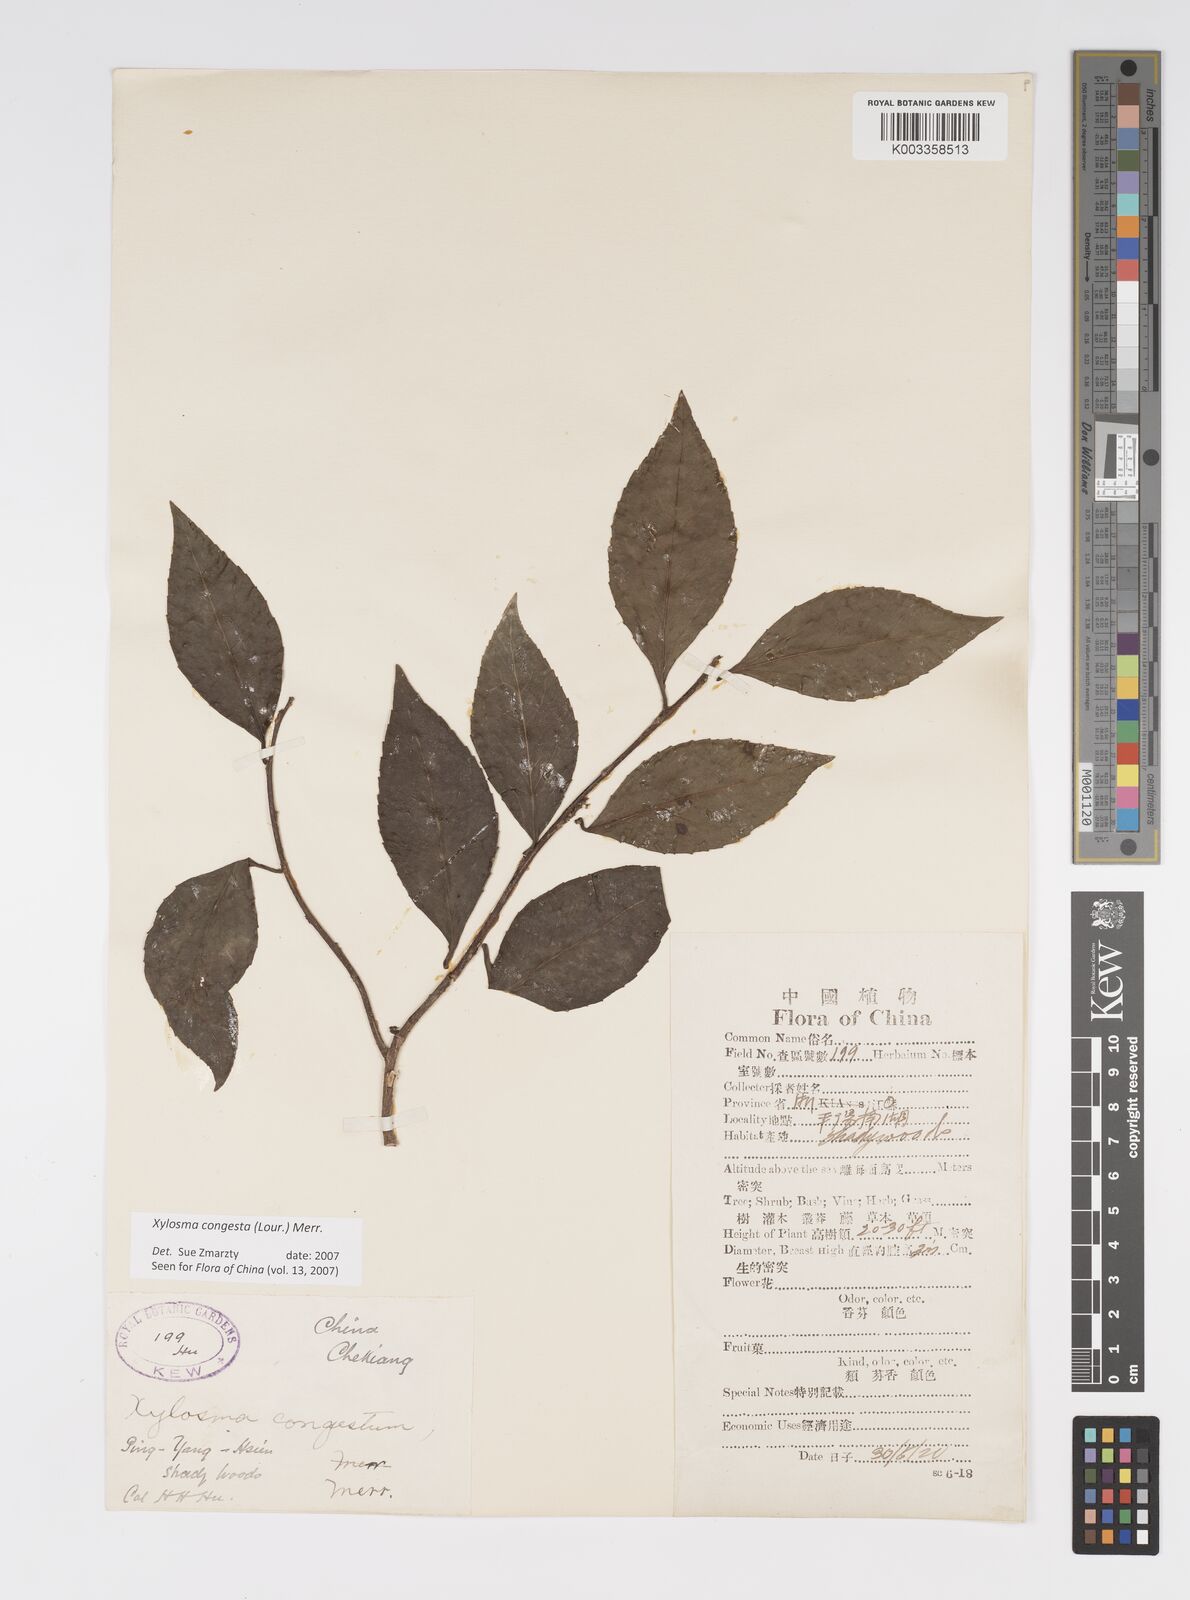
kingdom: Plantae
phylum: Tracheophyta
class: Magnoliopsida
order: Malpighiales
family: Salicaceae
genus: Xylosma
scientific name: Xylosma racemosum
